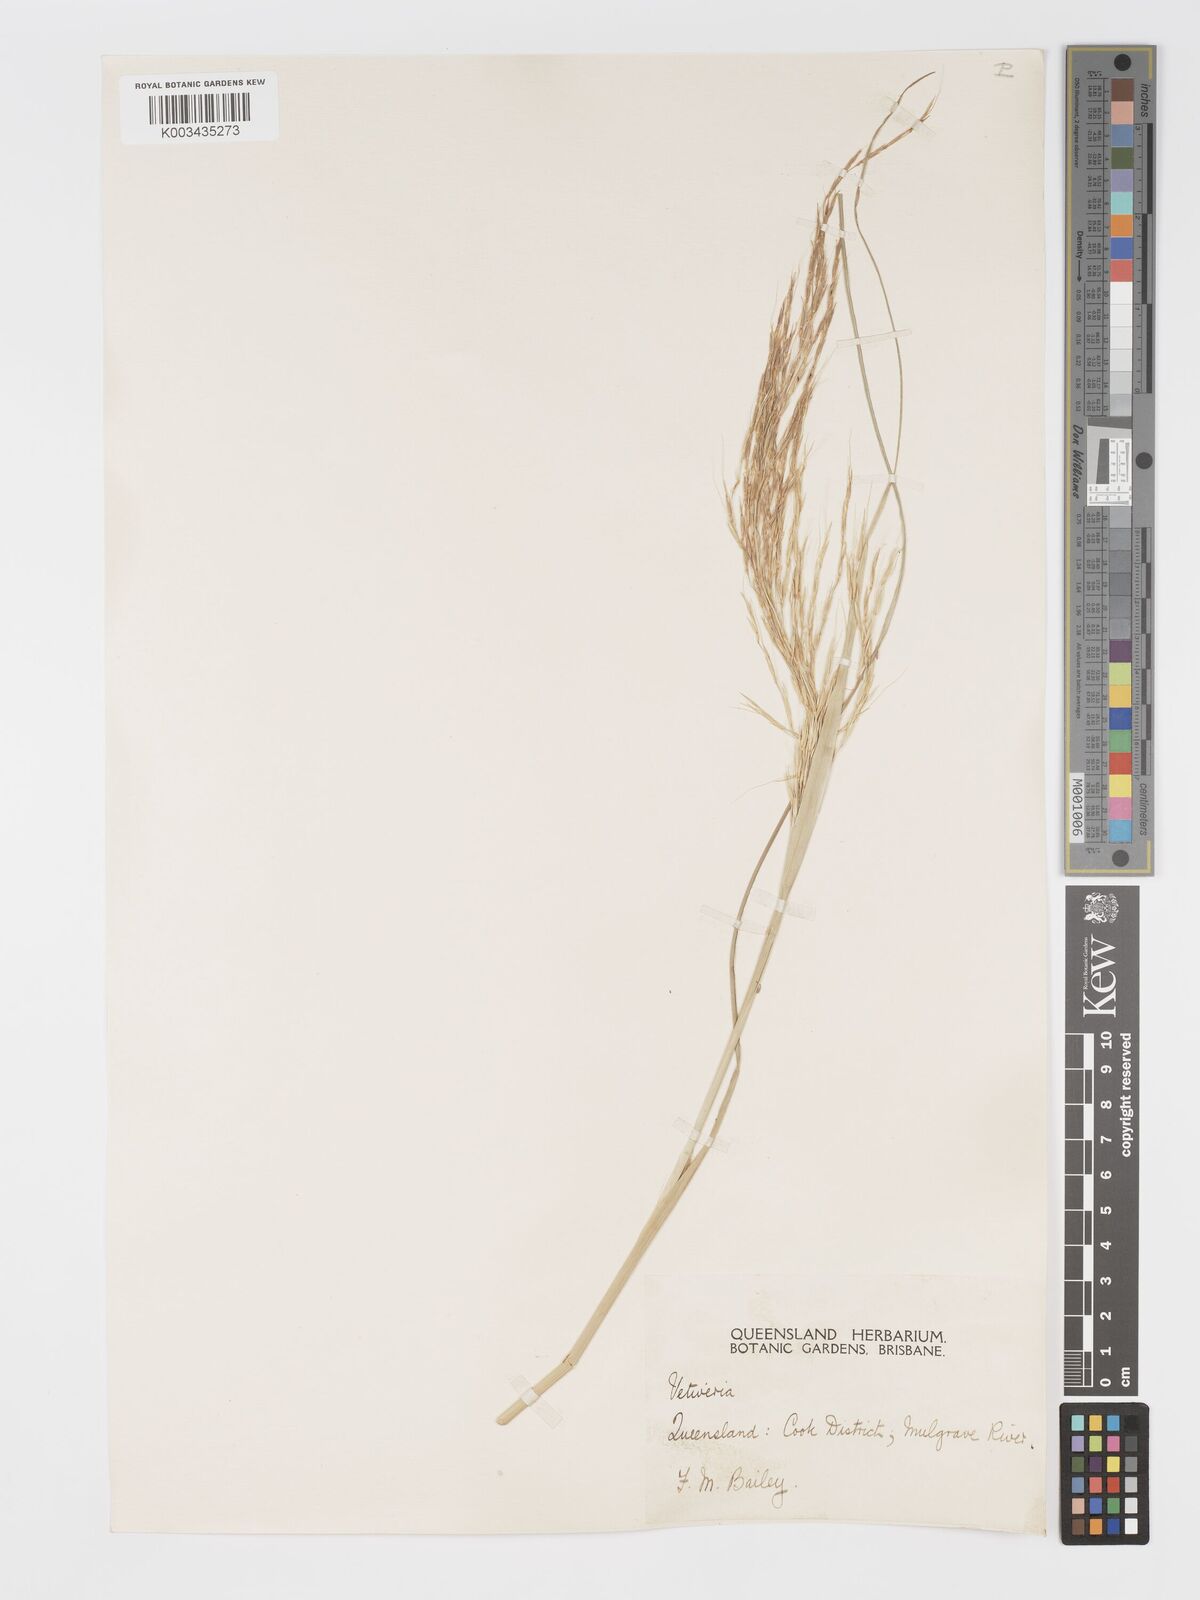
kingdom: Plantae
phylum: Tracheophyta
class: Liliopsida
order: Poales
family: Poaceae
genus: Chrysopogon
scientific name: Chrysopogon filipes
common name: Australian vetiver
